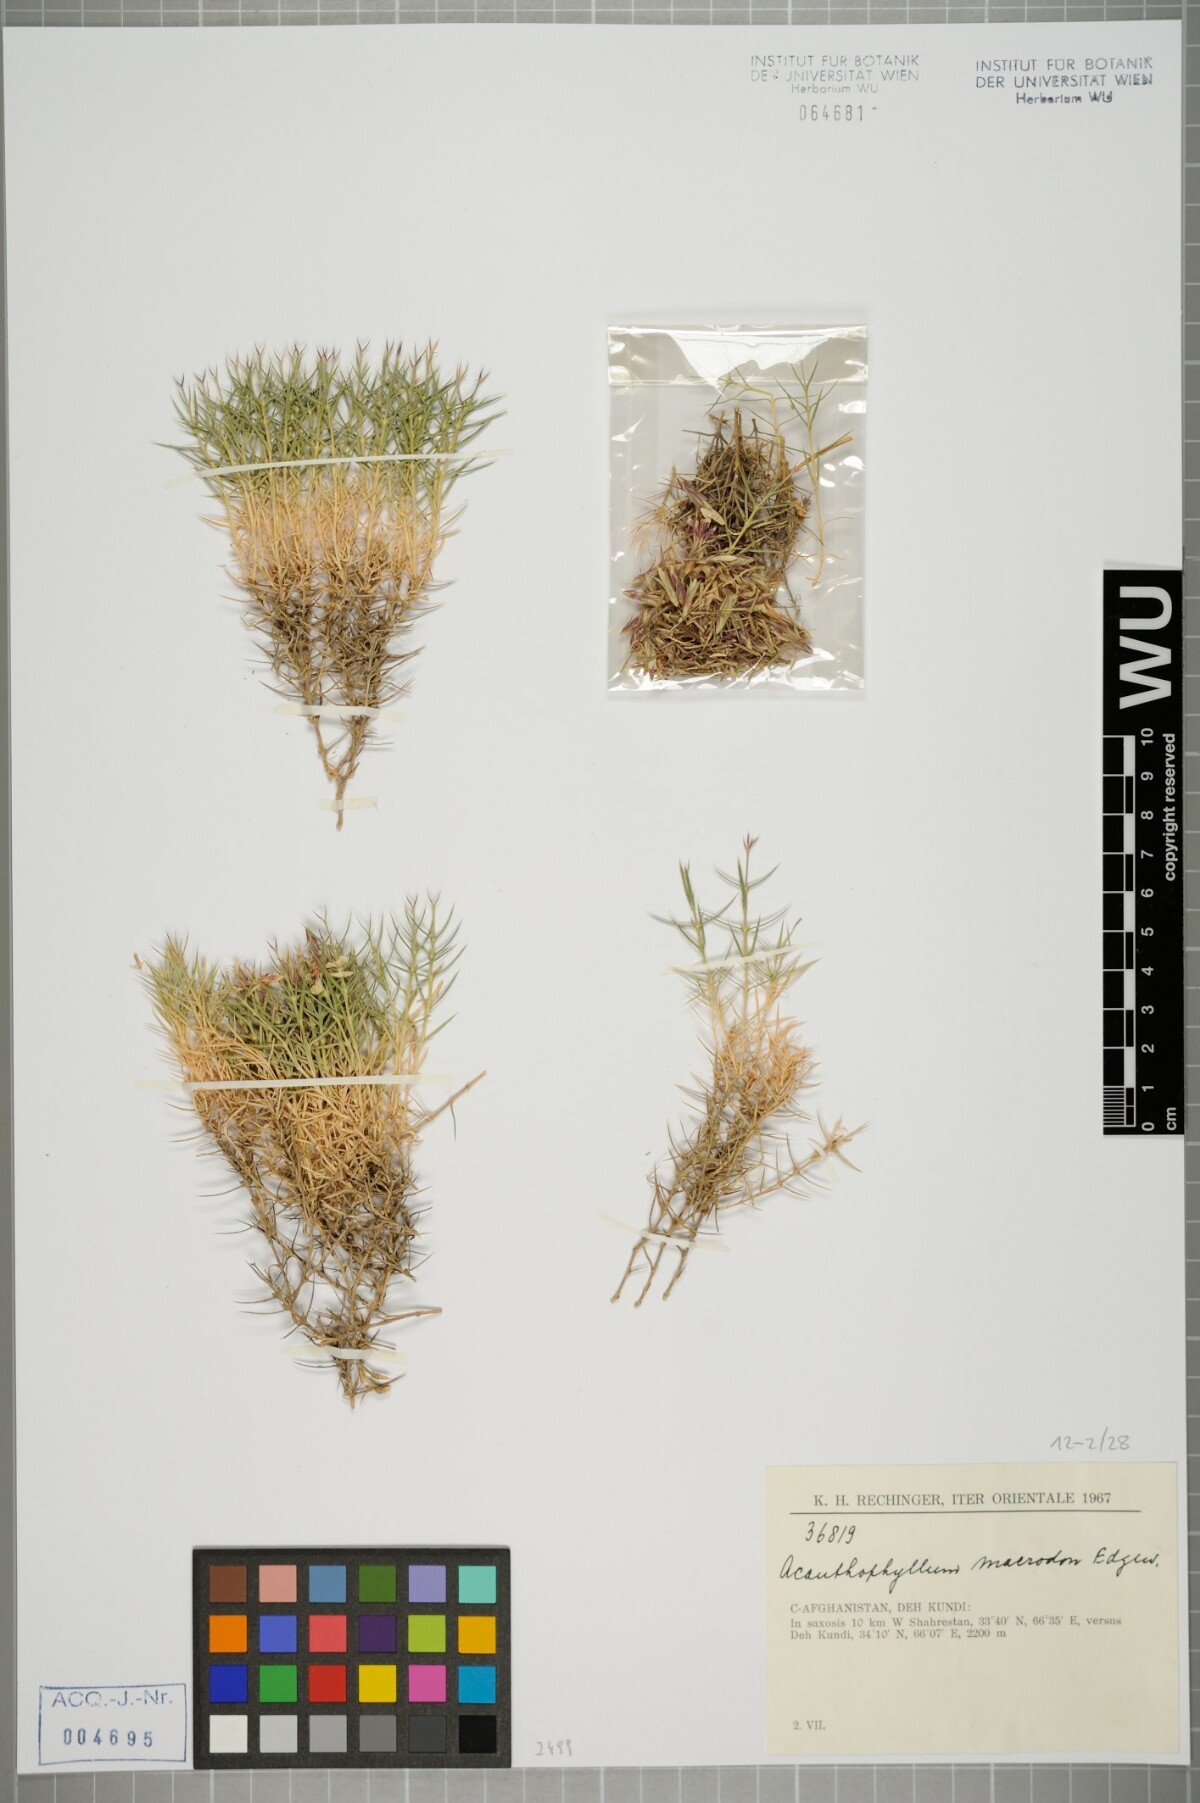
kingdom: Plantae
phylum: Tracheophyta
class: Magnoliopsida
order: Caryophyllales
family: Caryophyllaceae
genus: Acanthophyllum
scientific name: Acanthophyllum grandiflorum
